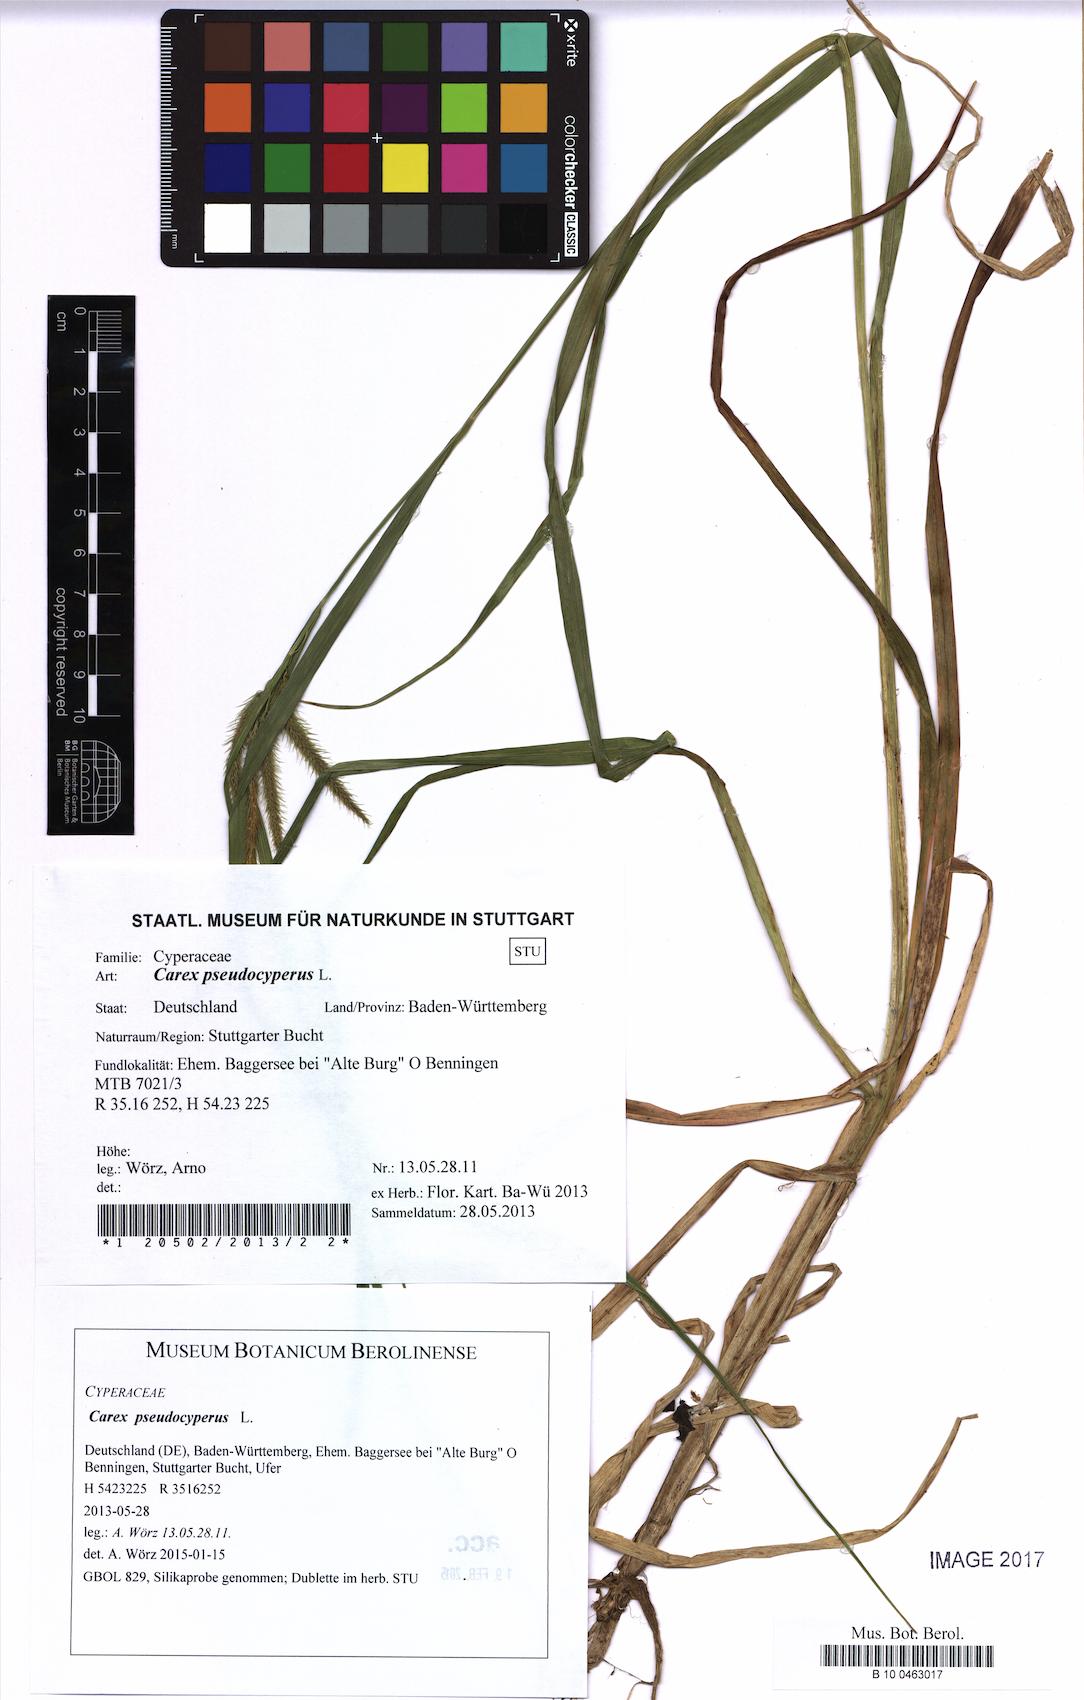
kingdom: Plantae
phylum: Tracheophyta
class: Liliopsida
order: Poales
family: Cyperaceae
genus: Carex
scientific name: Carex pseudocyperus
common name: Cyperus sedge
